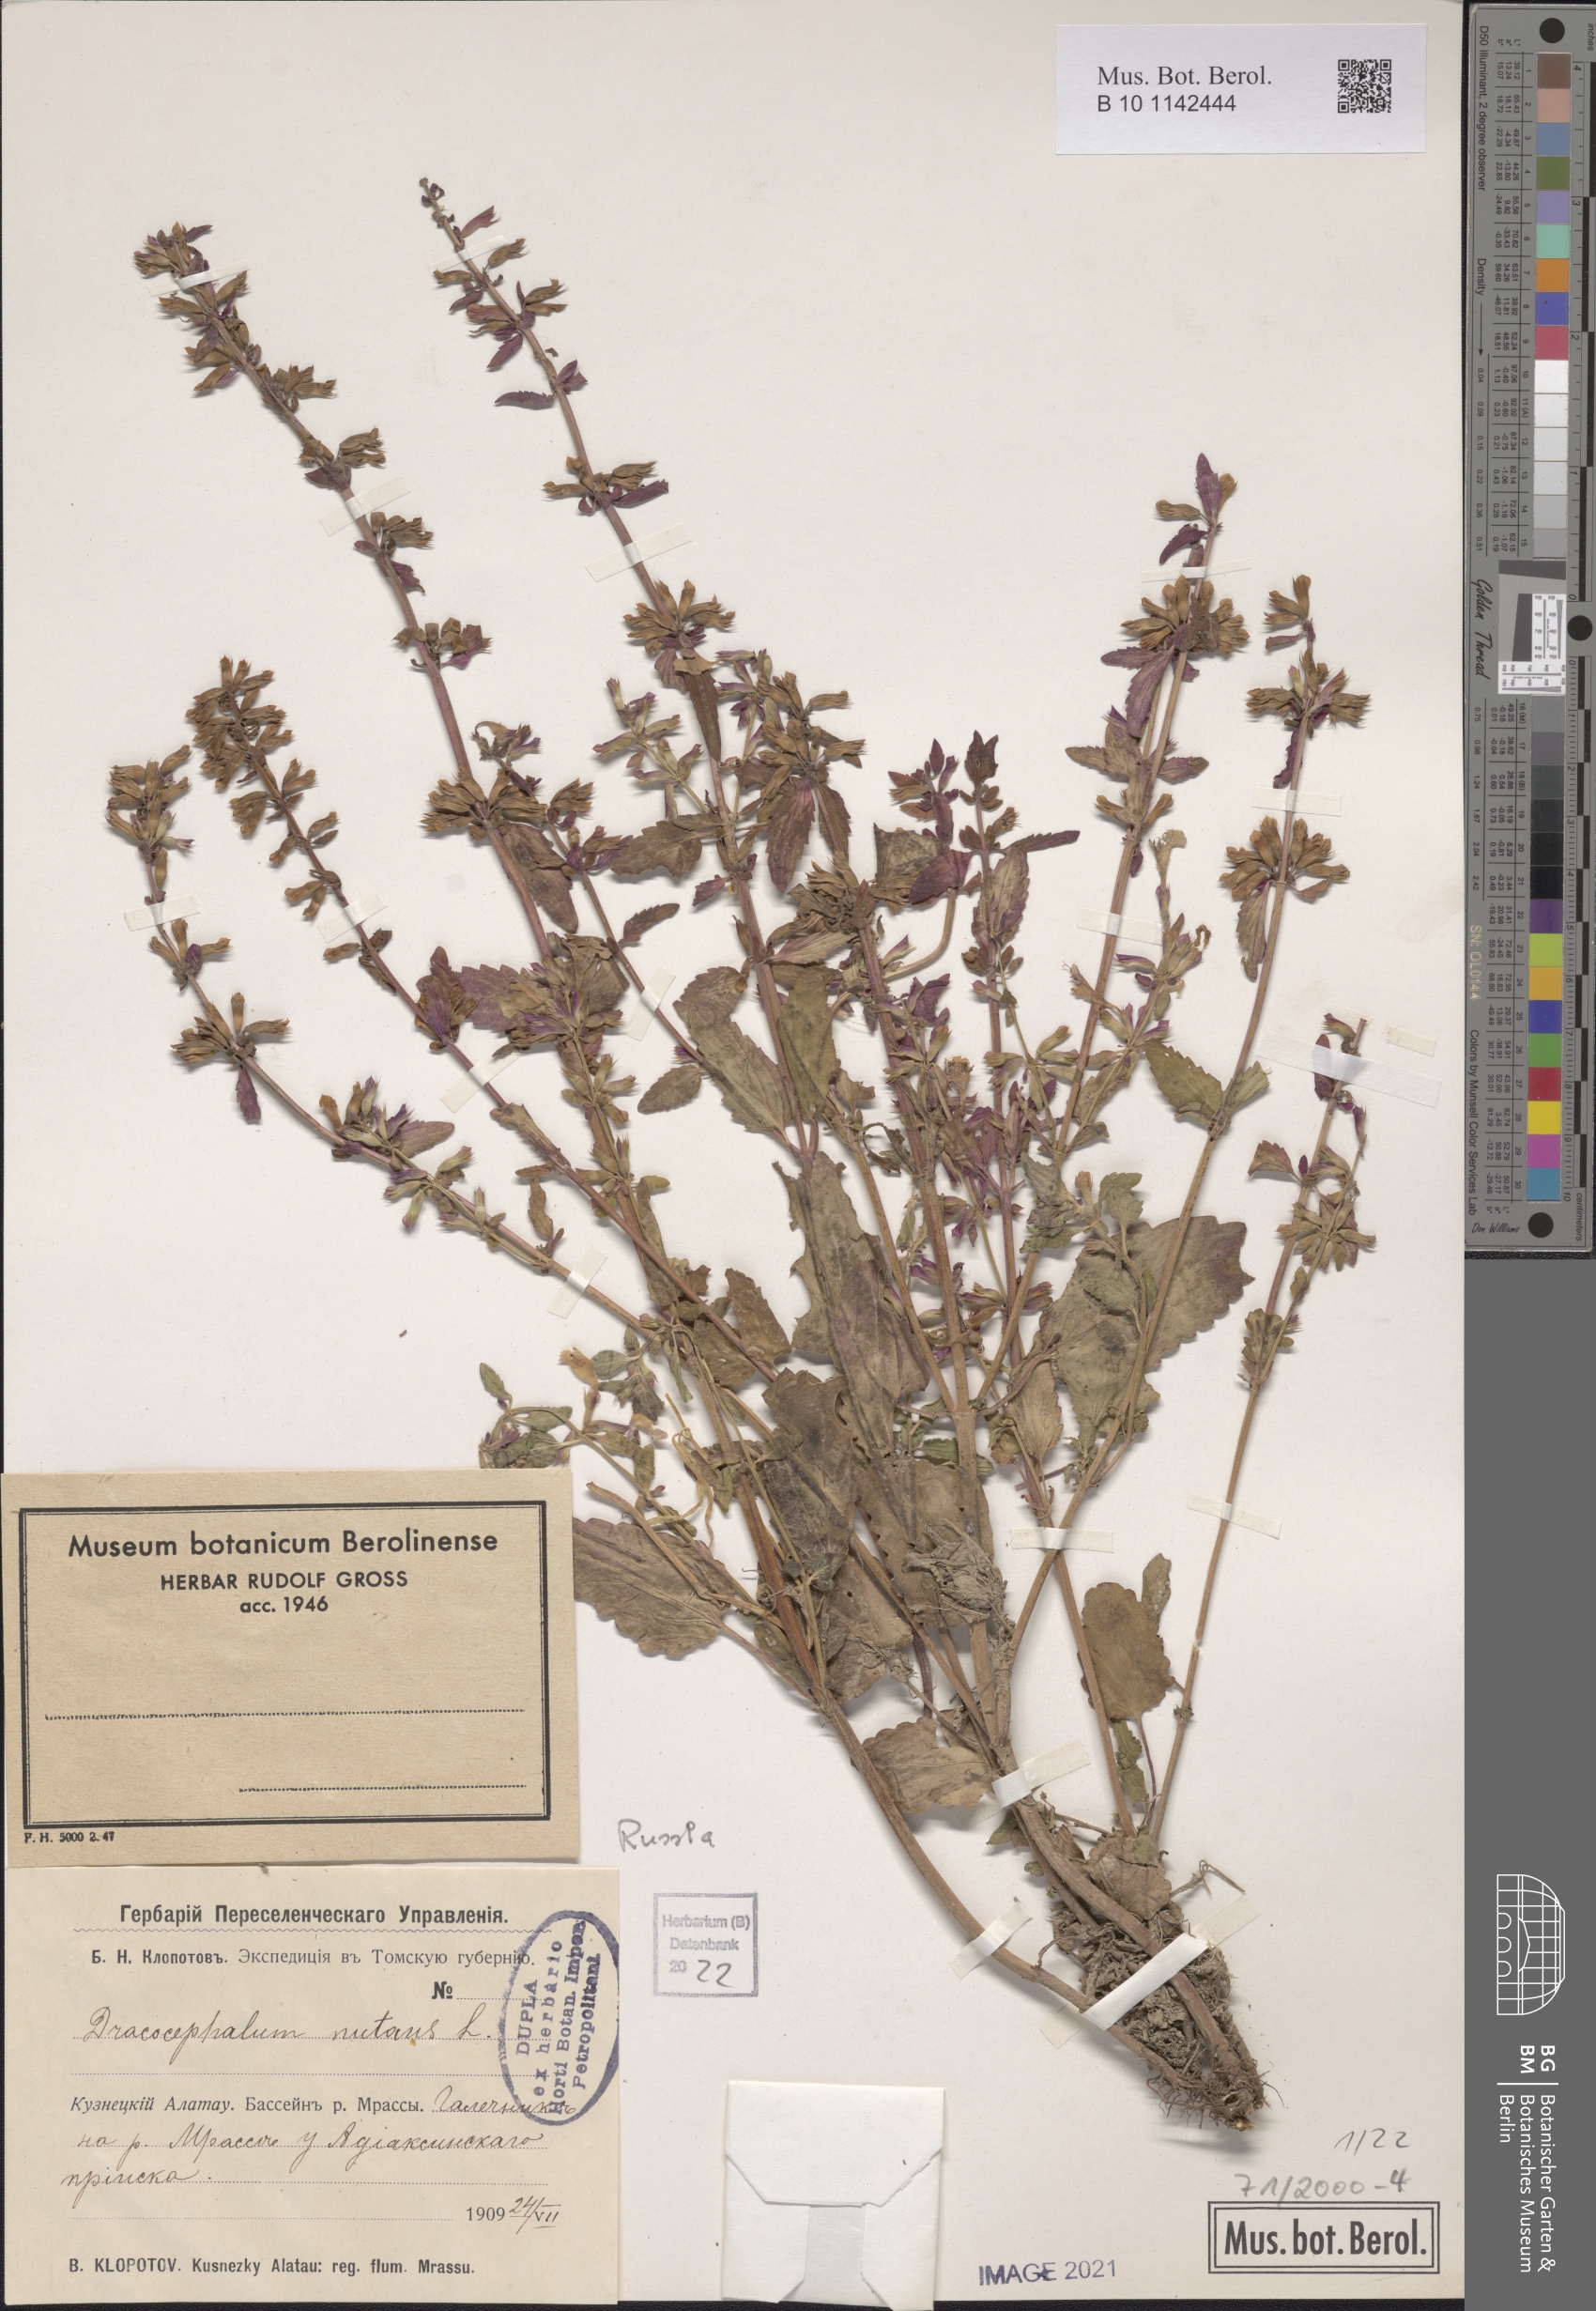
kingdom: Plantae
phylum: Tracheophyta
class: Magnoliopsida
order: Lamiales
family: Lamiaceae
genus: Dracocephalum
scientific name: Dracocephalum nutans
